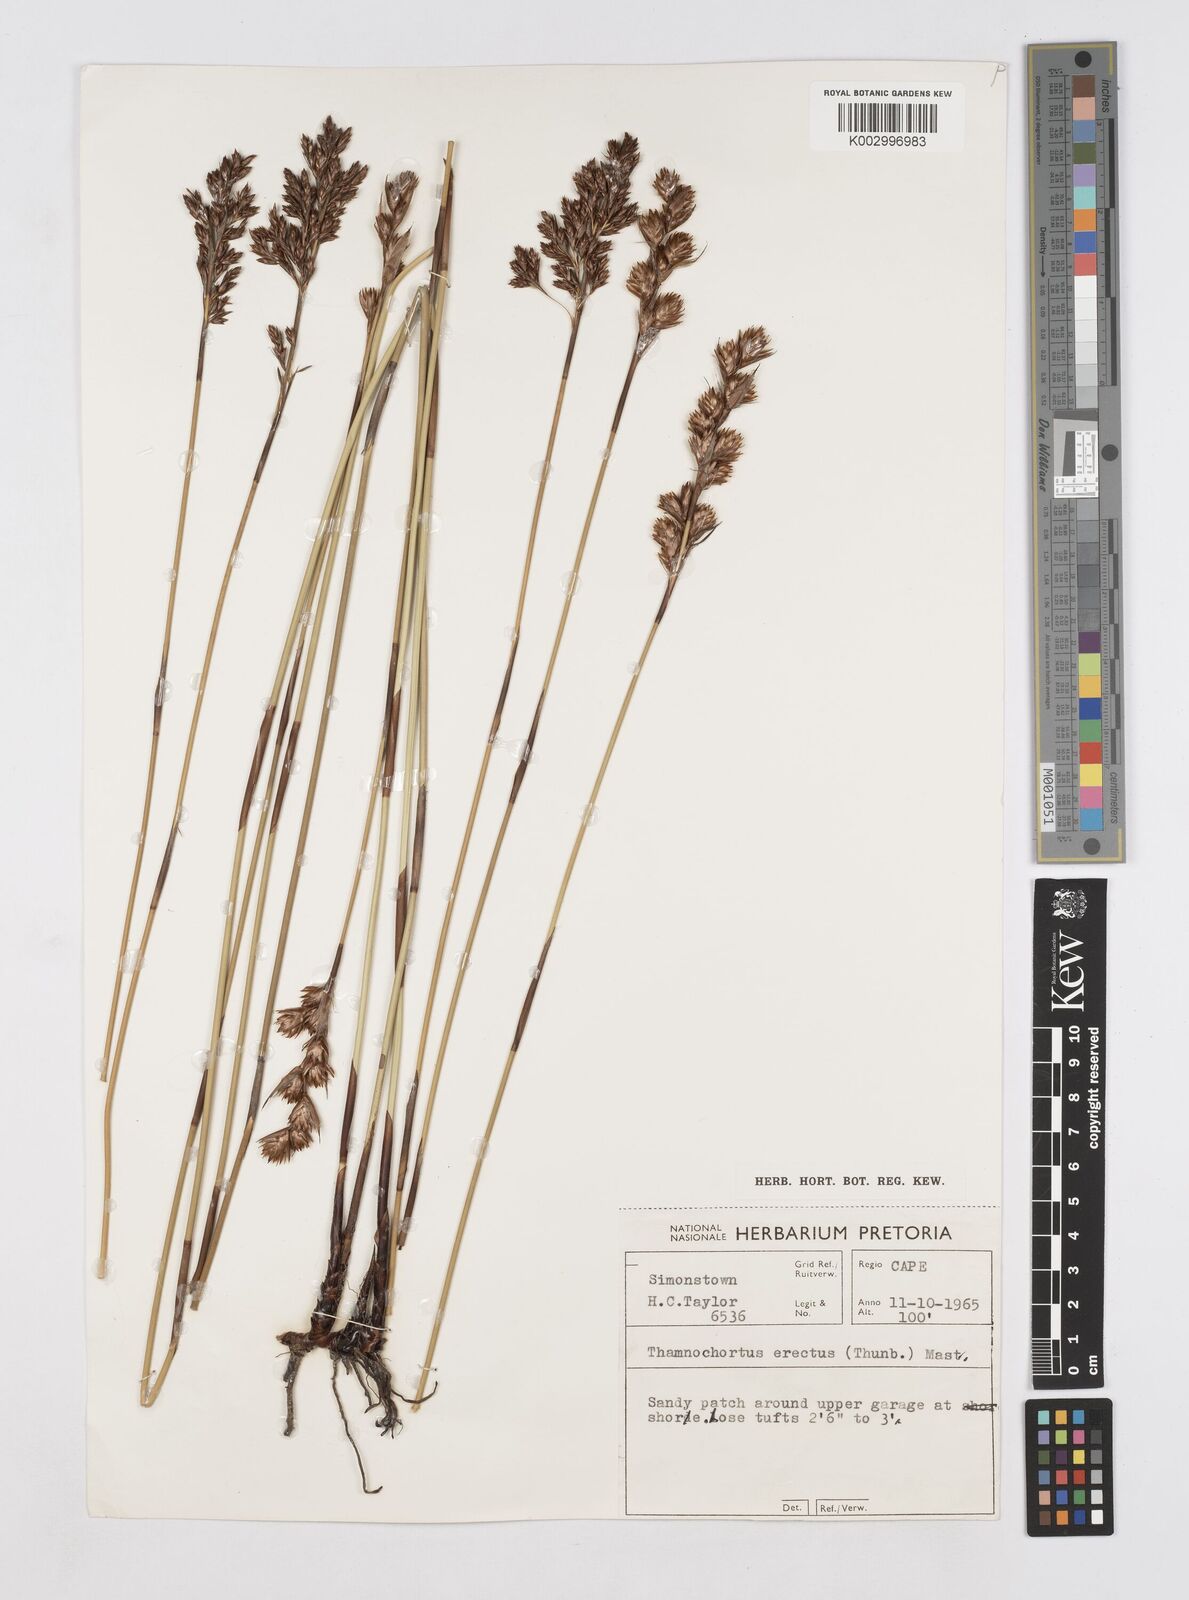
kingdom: Plantae
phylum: Tracheophyta
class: Liliopsida
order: Poales
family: Restionaceae
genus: Thamnochortus
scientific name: Thamnochortus erectus
